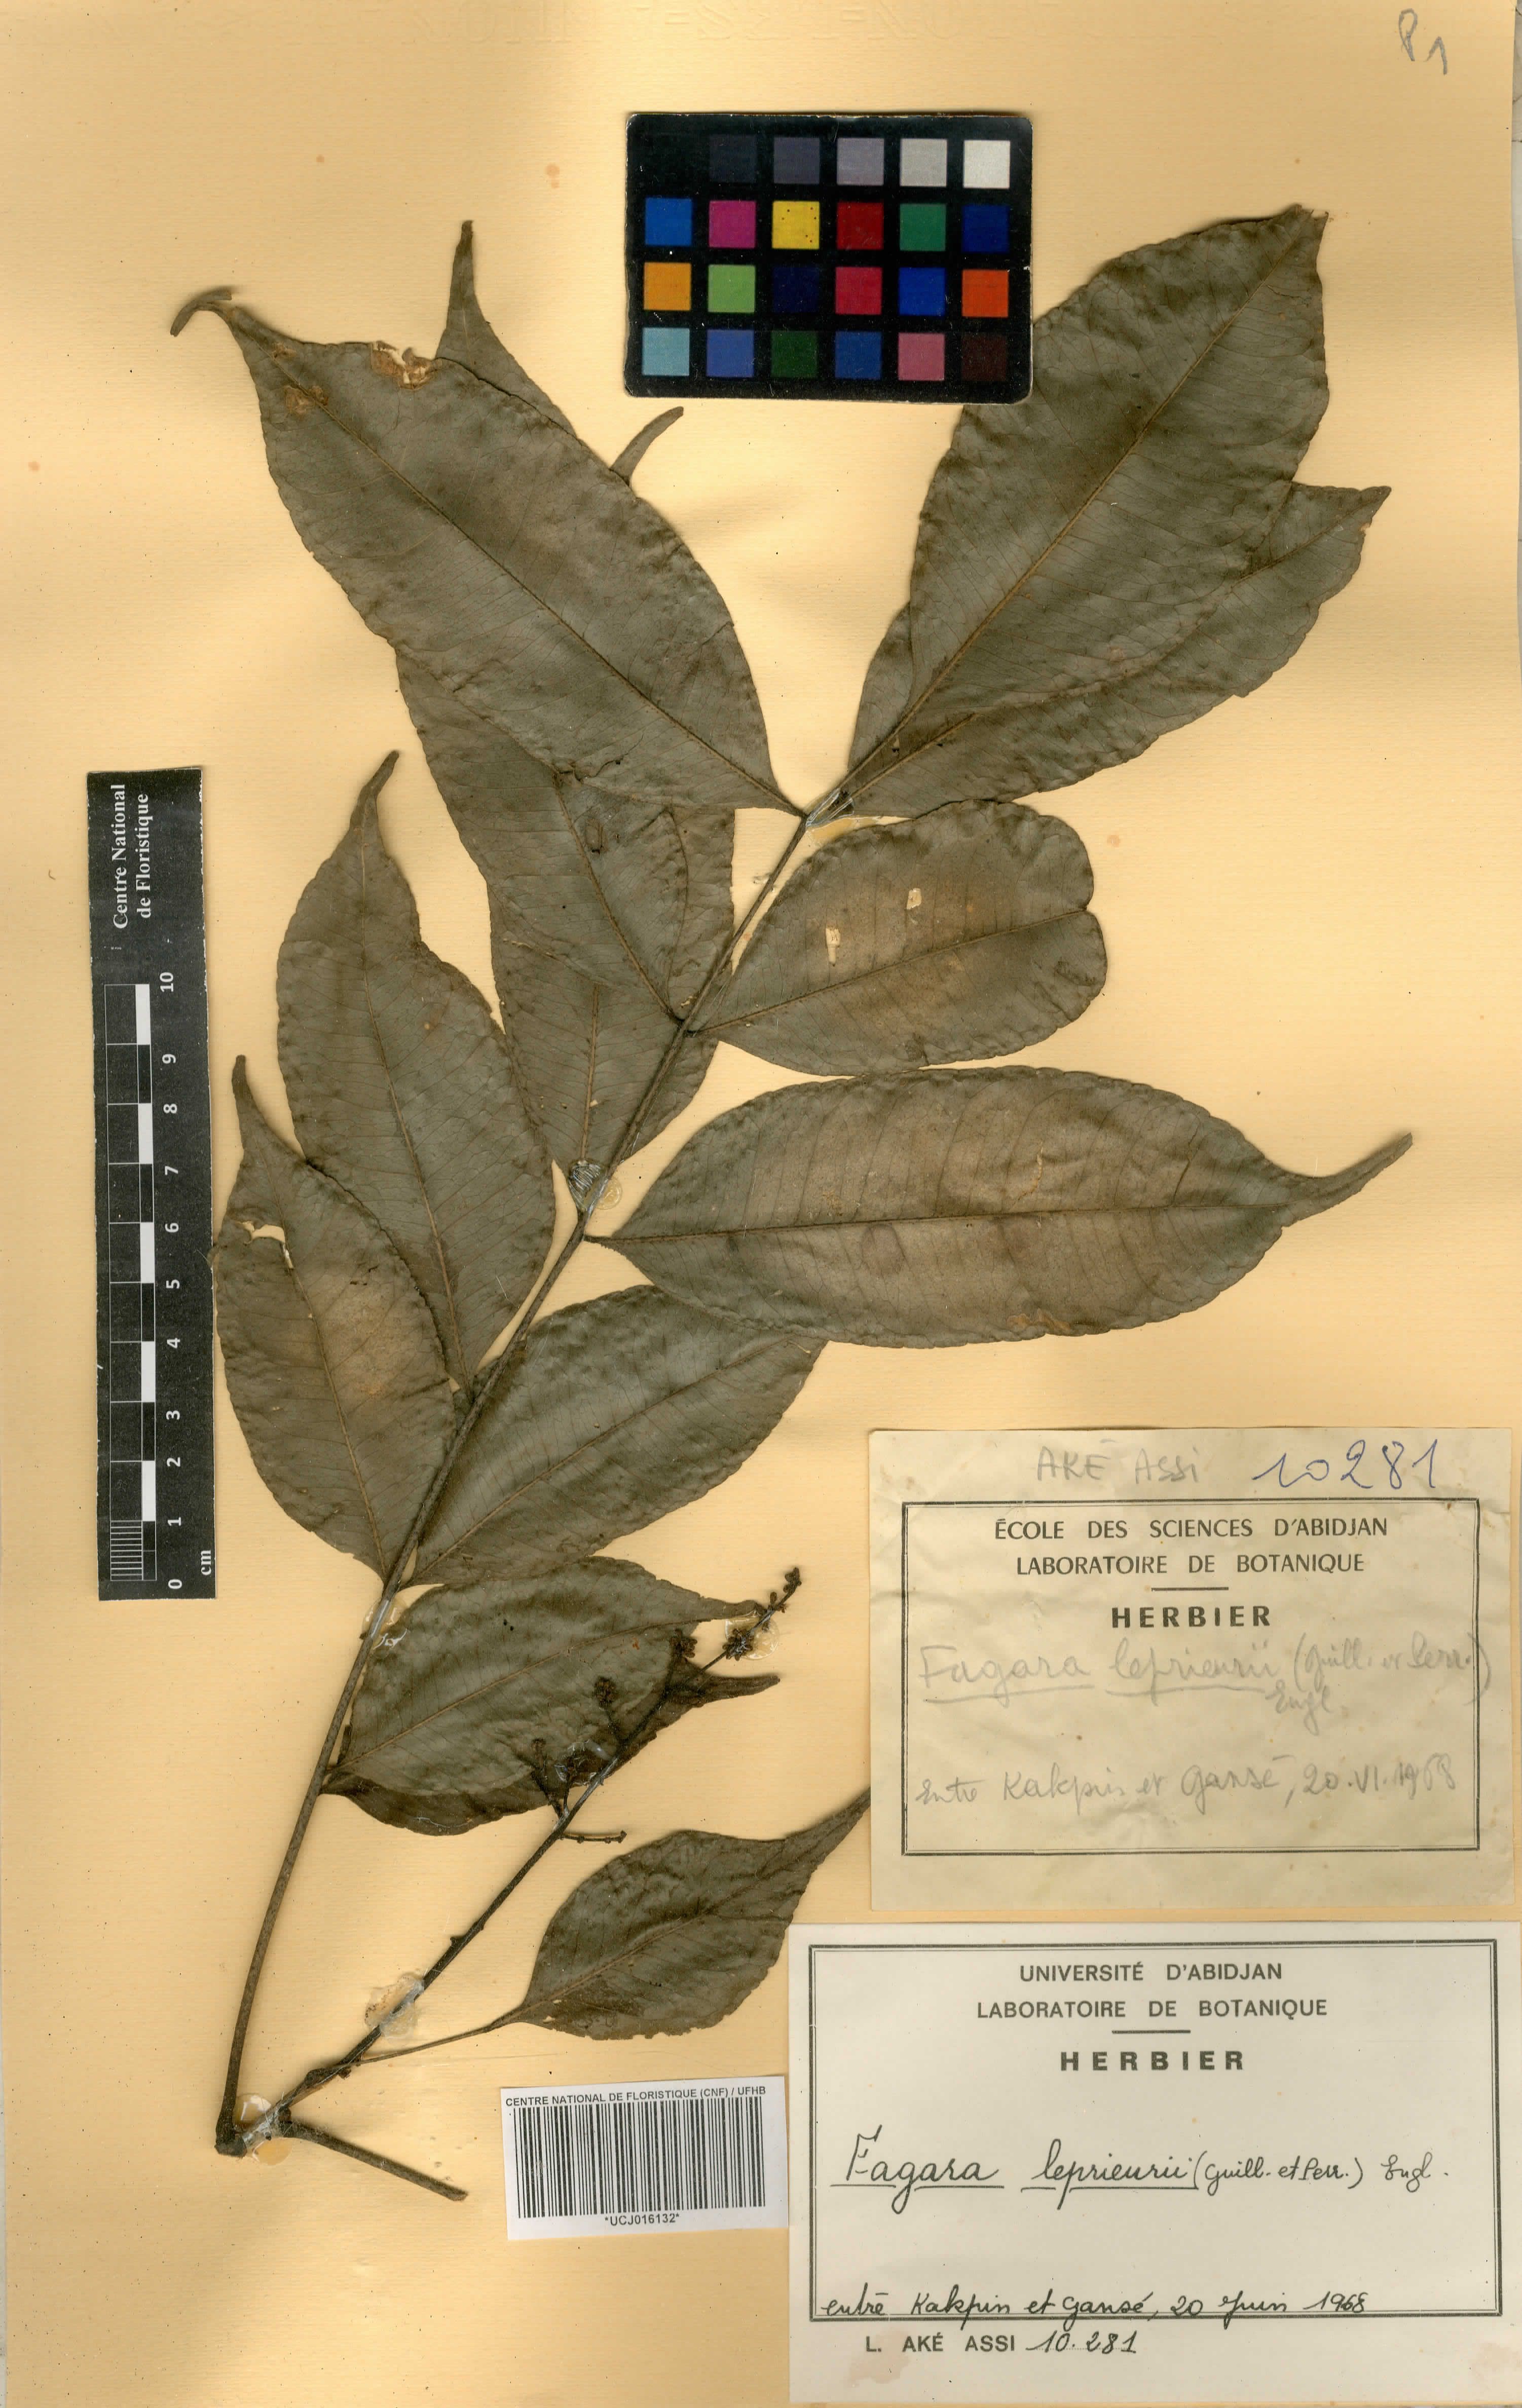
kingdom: Plantae
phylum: Tracheophyta
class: Magnoliopsida
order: Sapindales
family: Rutaceae
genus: Zanthoxylum
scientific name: Zanthoxylum leprieurii
